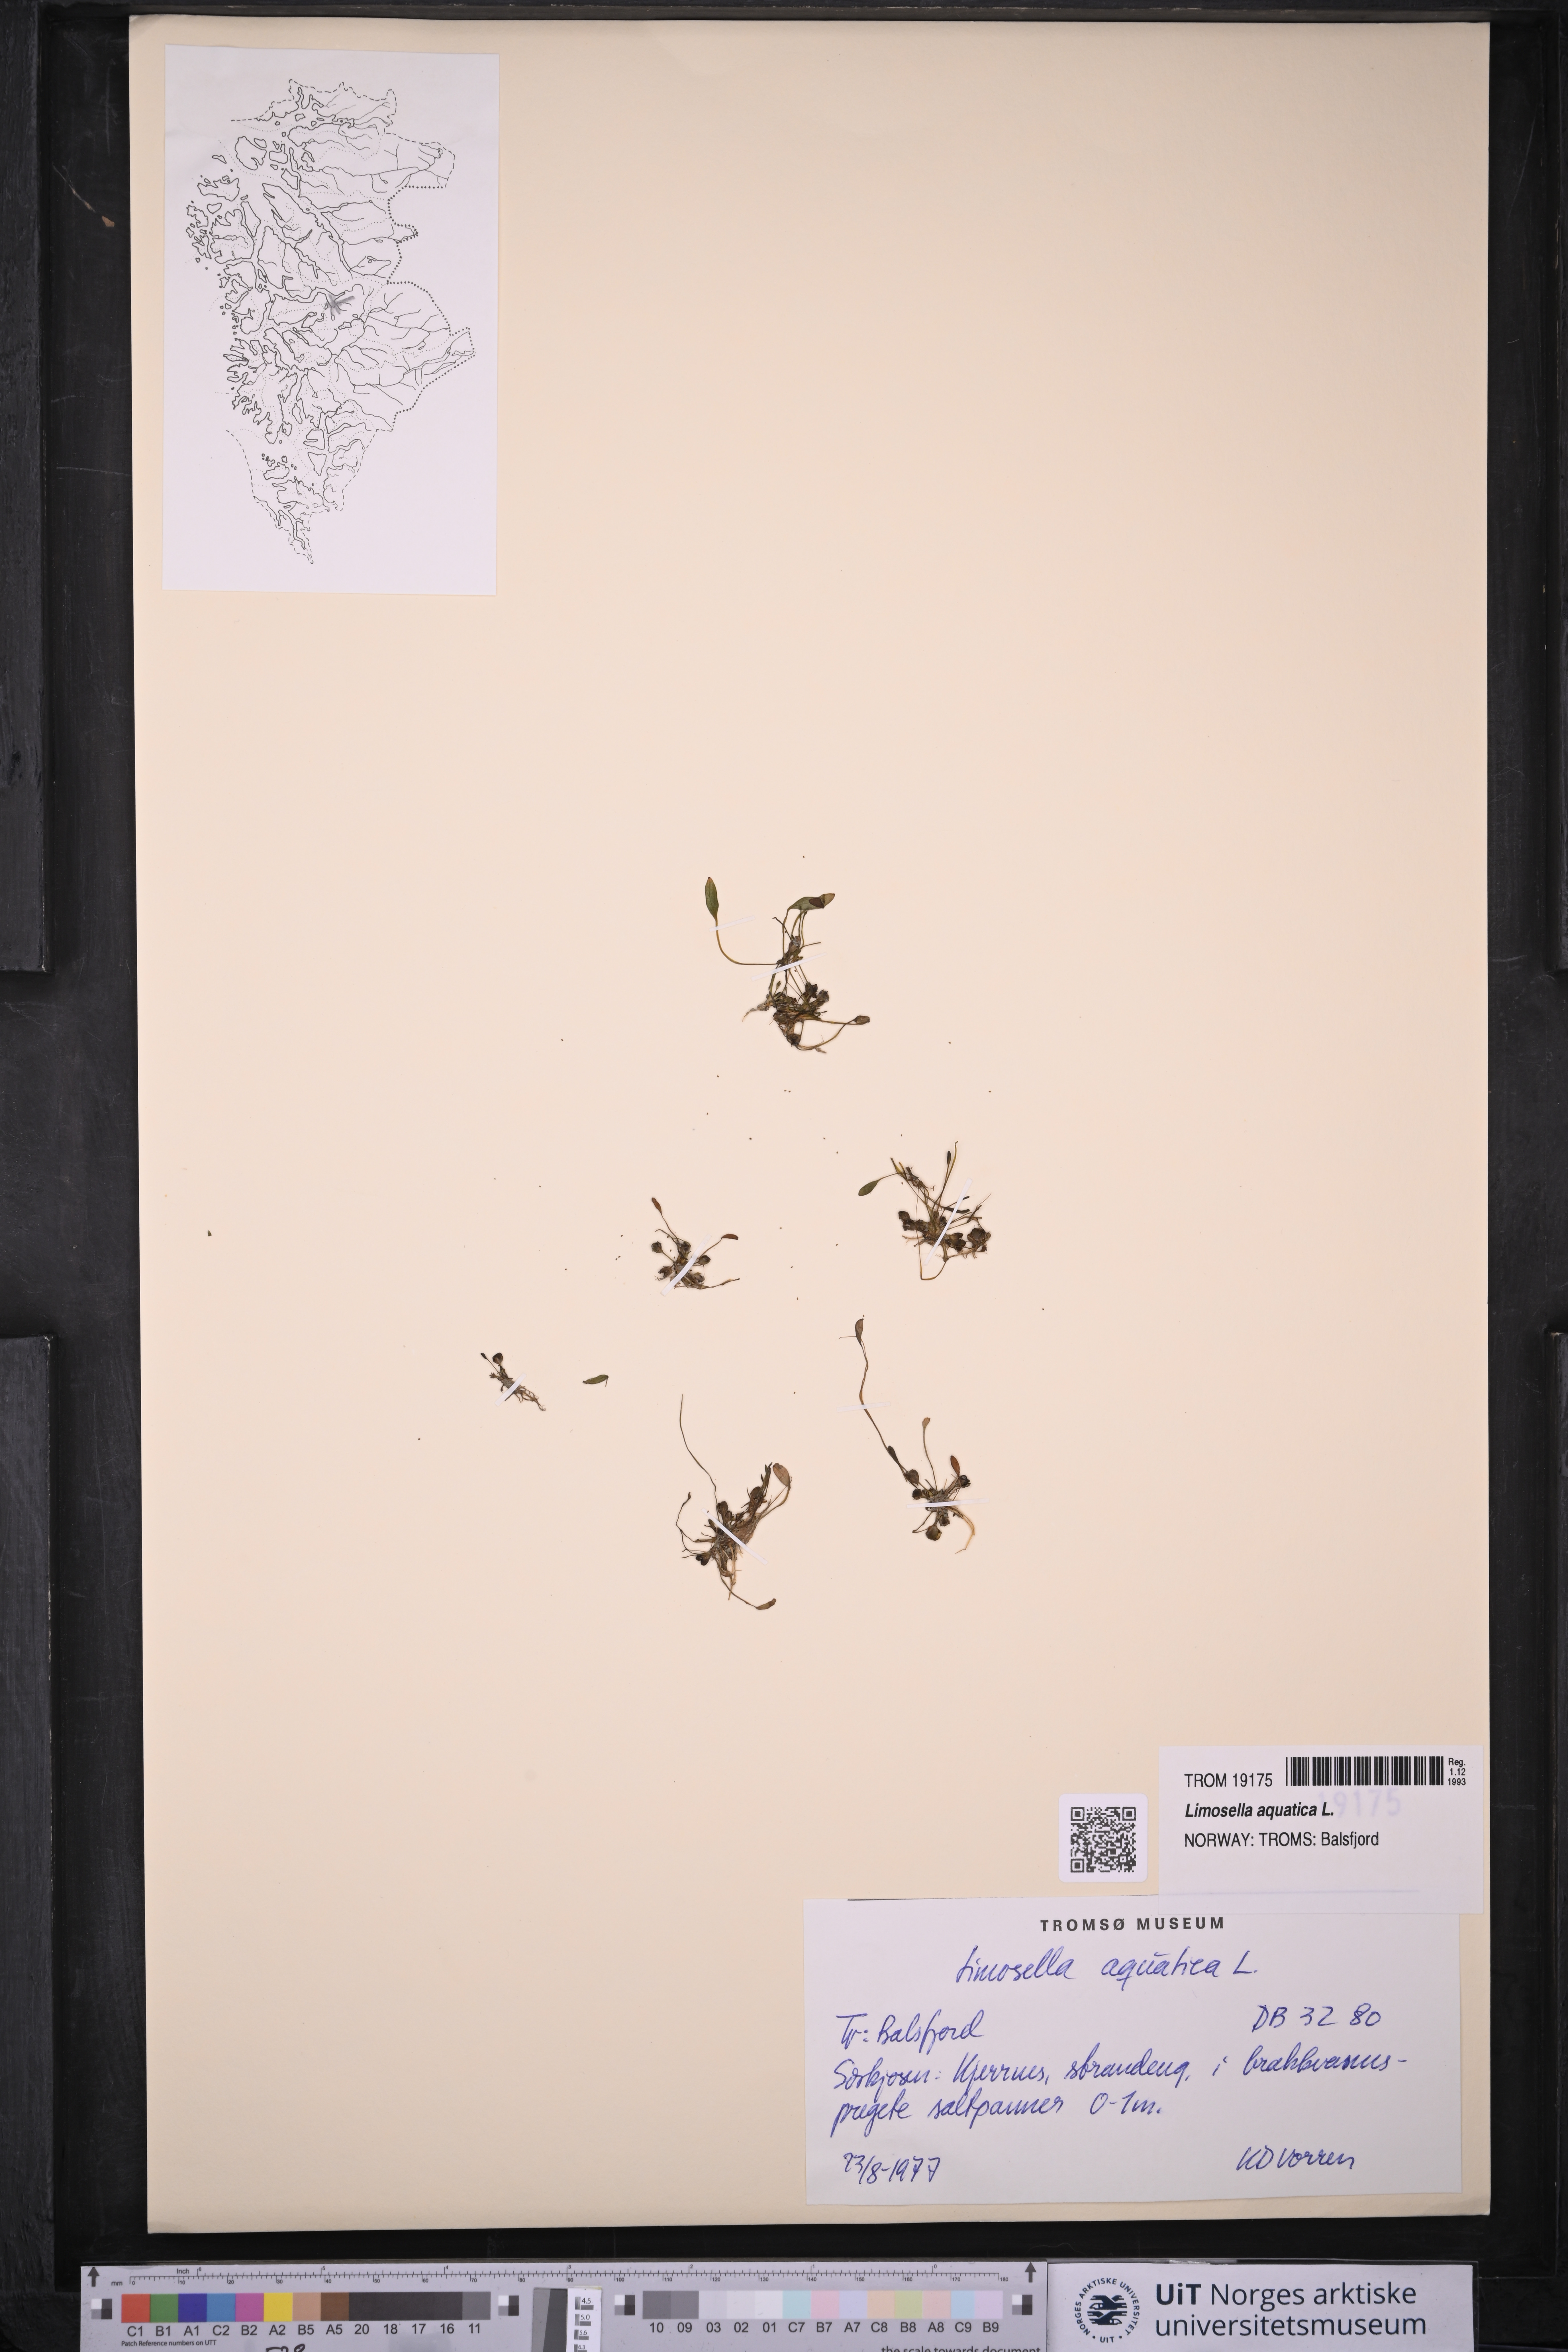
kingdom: Plantae
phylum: Tracheophyta
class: Magnoliopsida
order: Lamiales
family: Scrophulariaceae
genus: Limosella
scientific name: Limosella aquatica
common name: Mudwort
